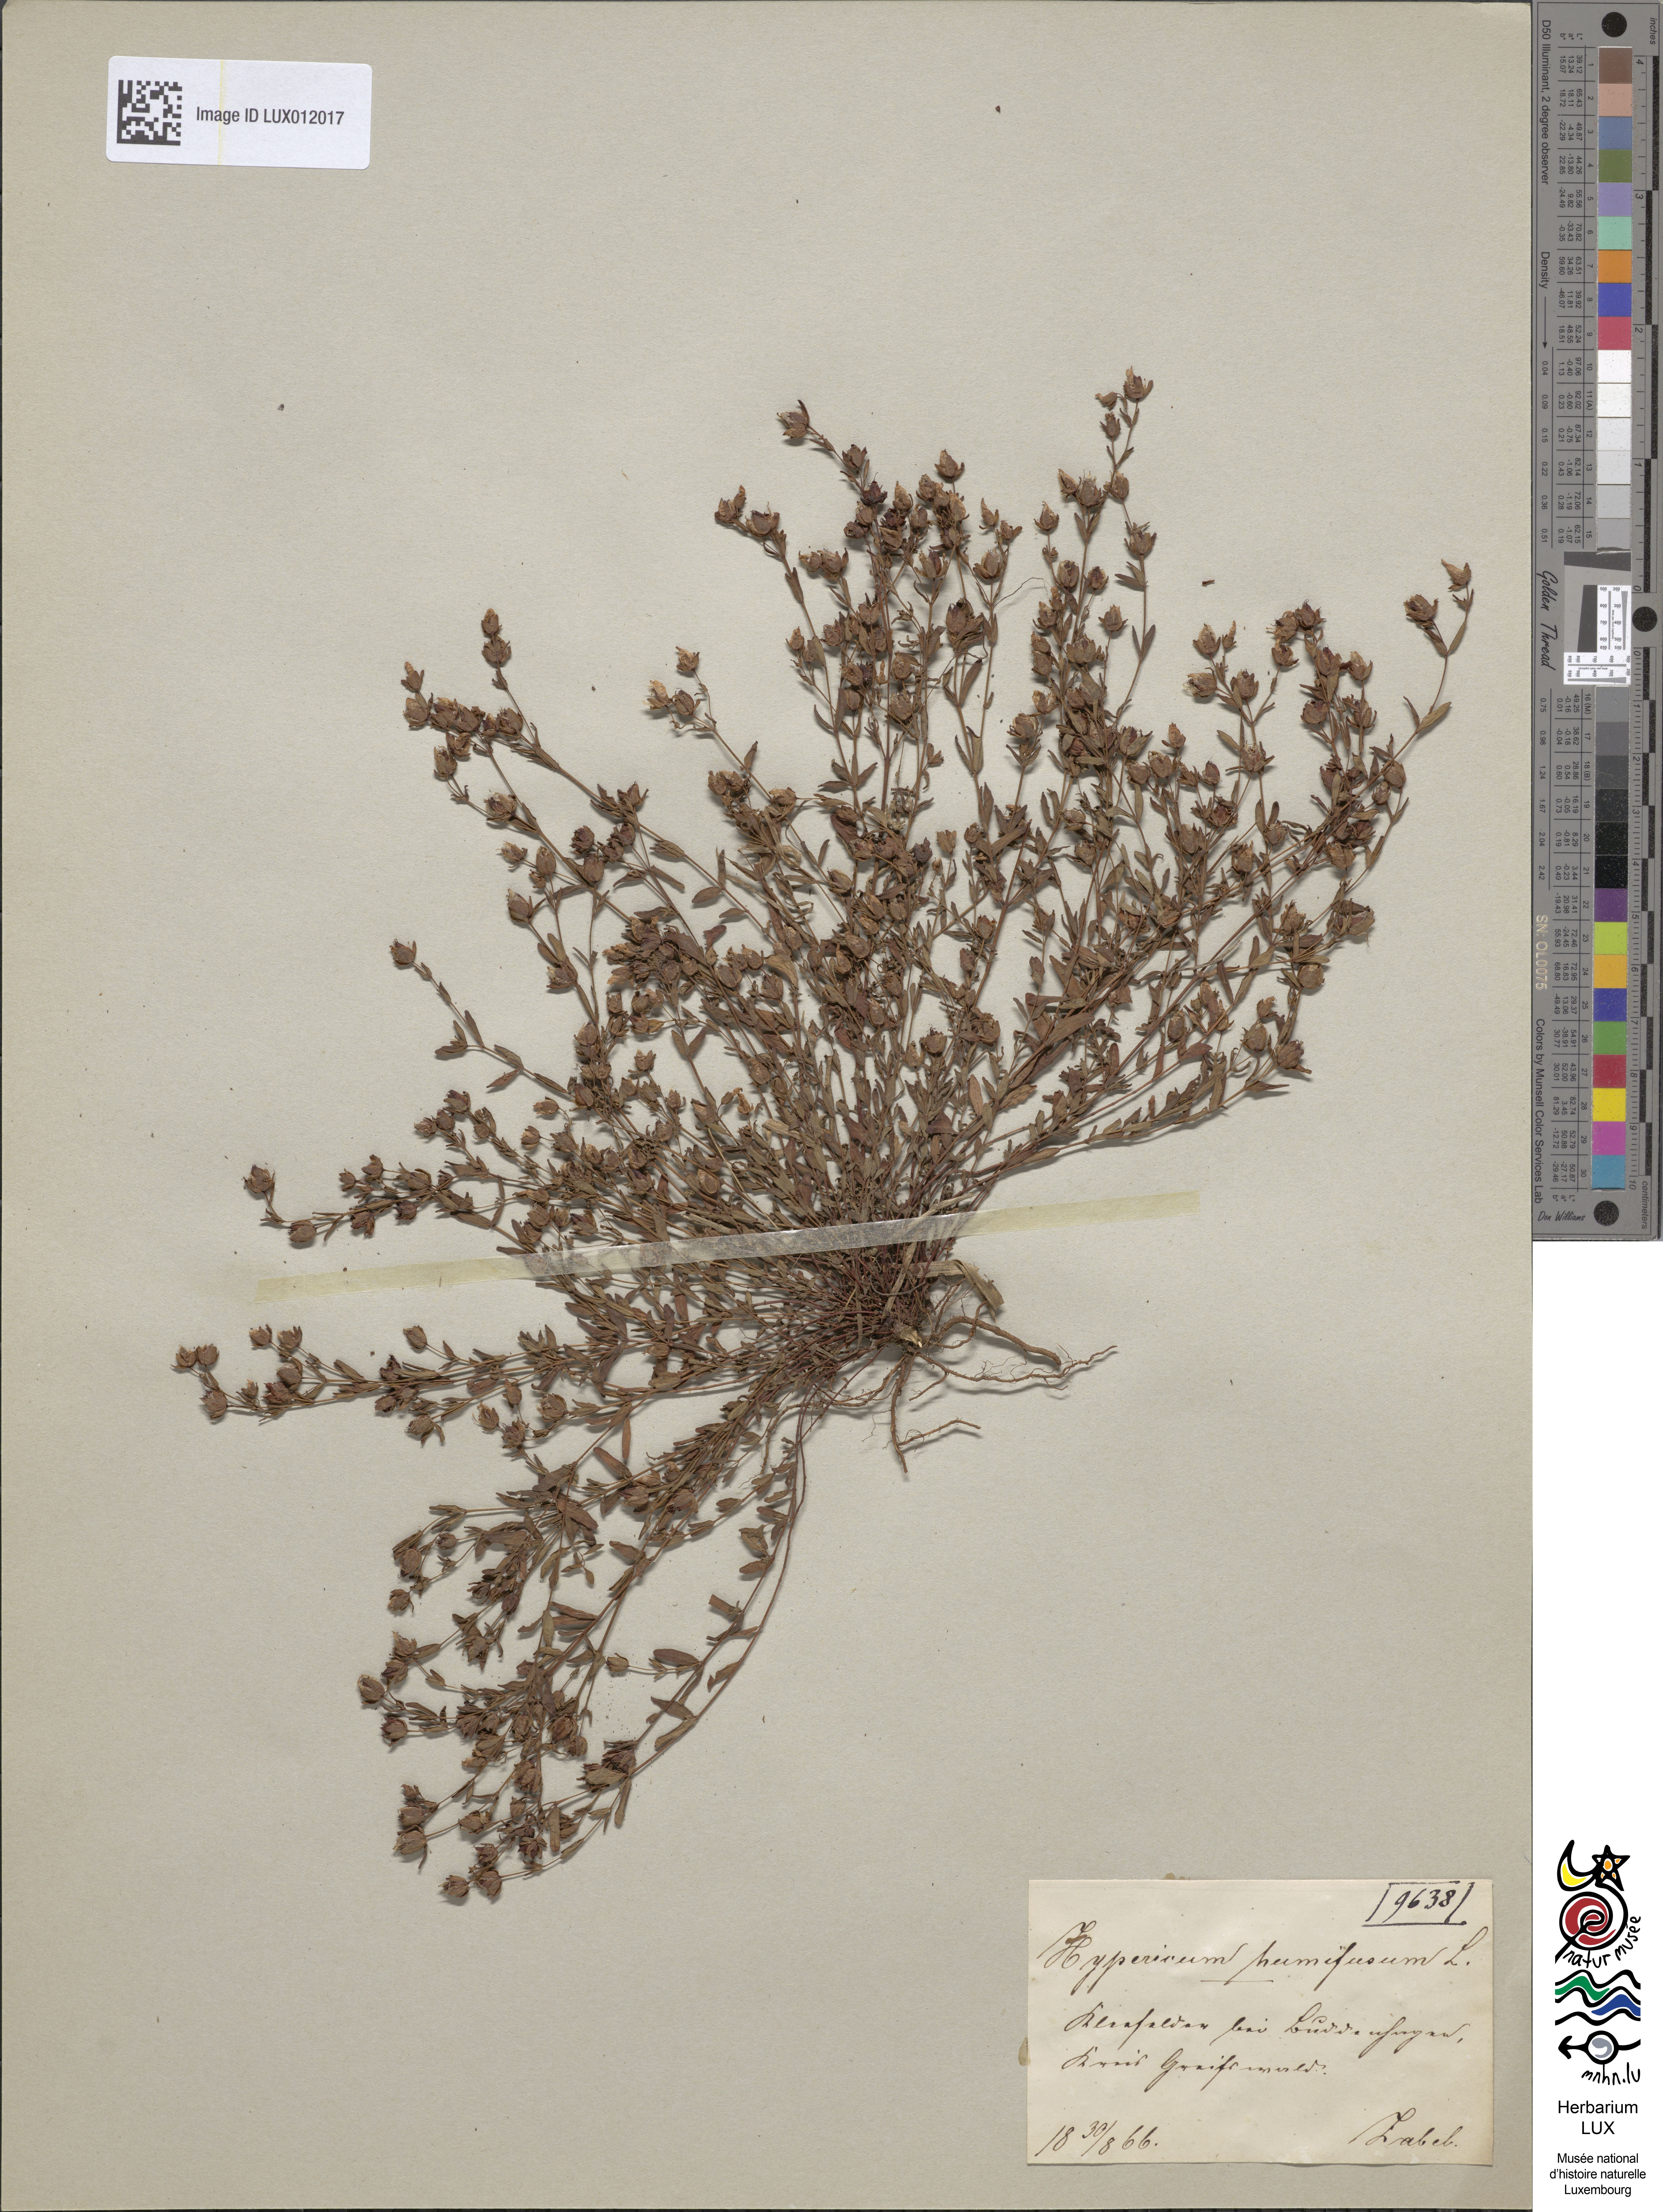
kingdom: Plantae
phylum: Tracheophyta
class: Magnoliopsida
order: Malpighiales
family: Hypericaceae
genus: Hypericum
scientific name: Hypericum humifusum
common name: Trailing st. john's-wort
